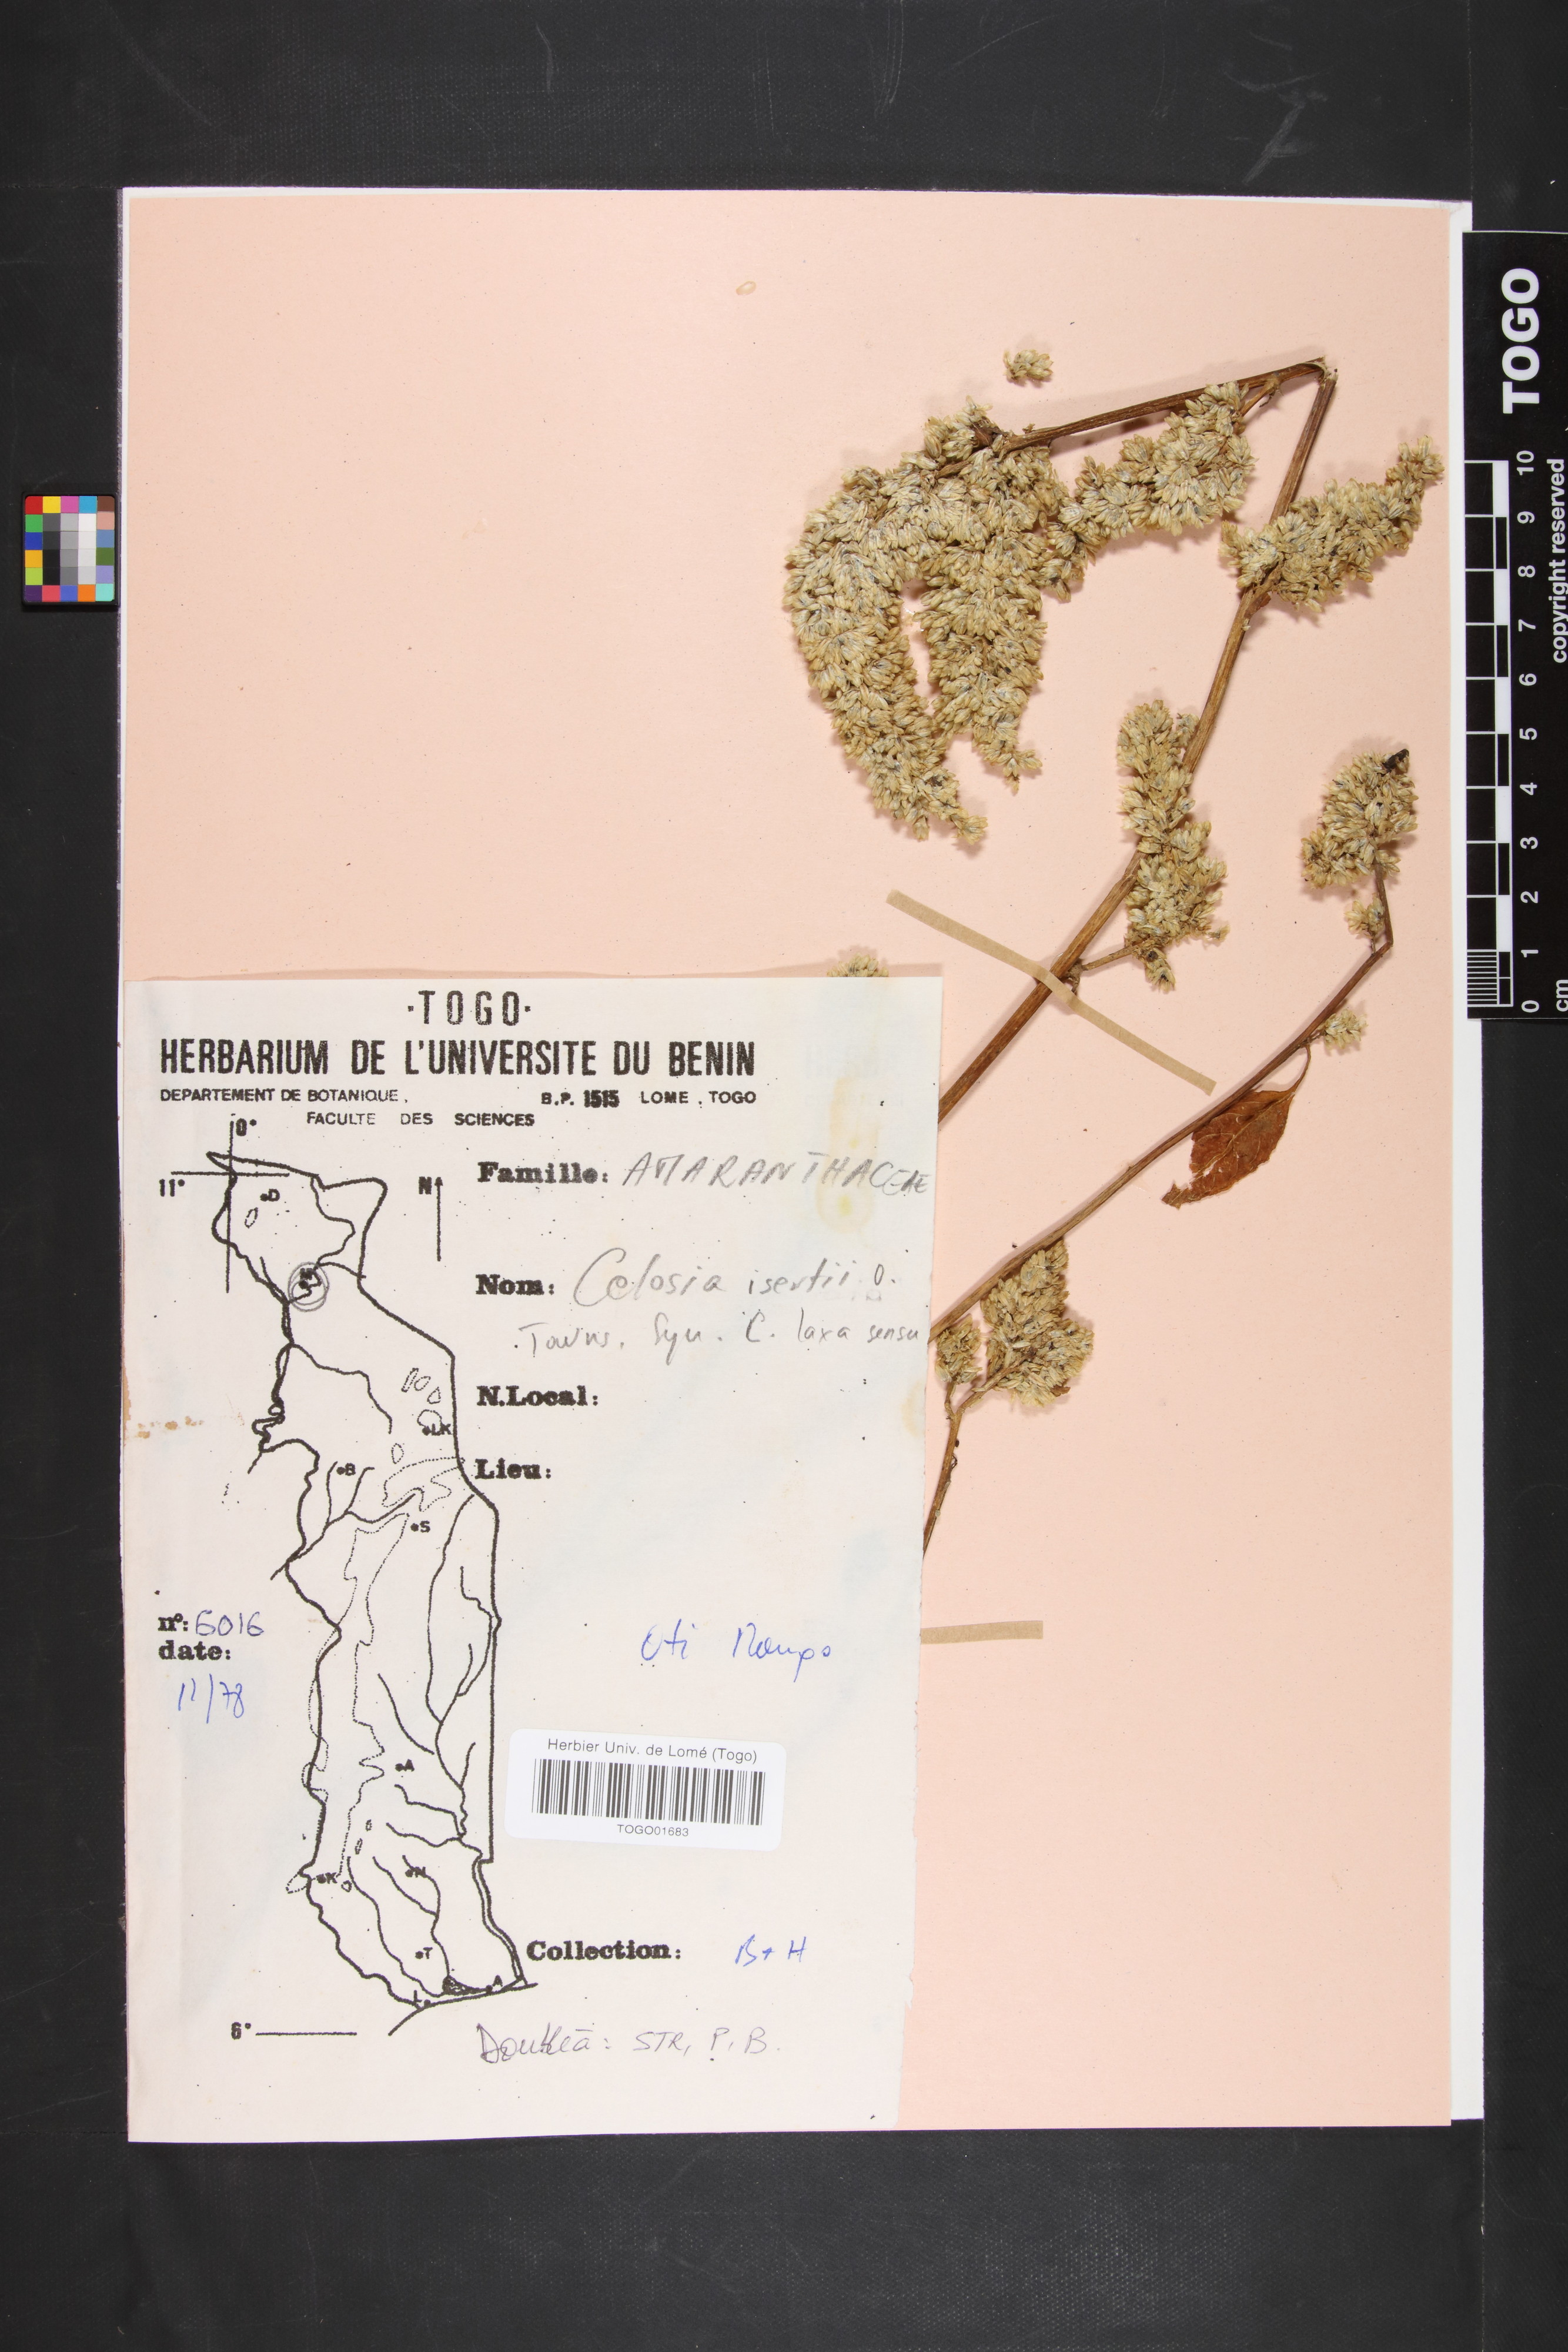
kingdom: Plantae
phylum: Tracheophyta
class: Magnoliopsida
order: Caryophyllales
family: Amaranthaceae
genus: Celosia
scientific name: Celosia isertii
